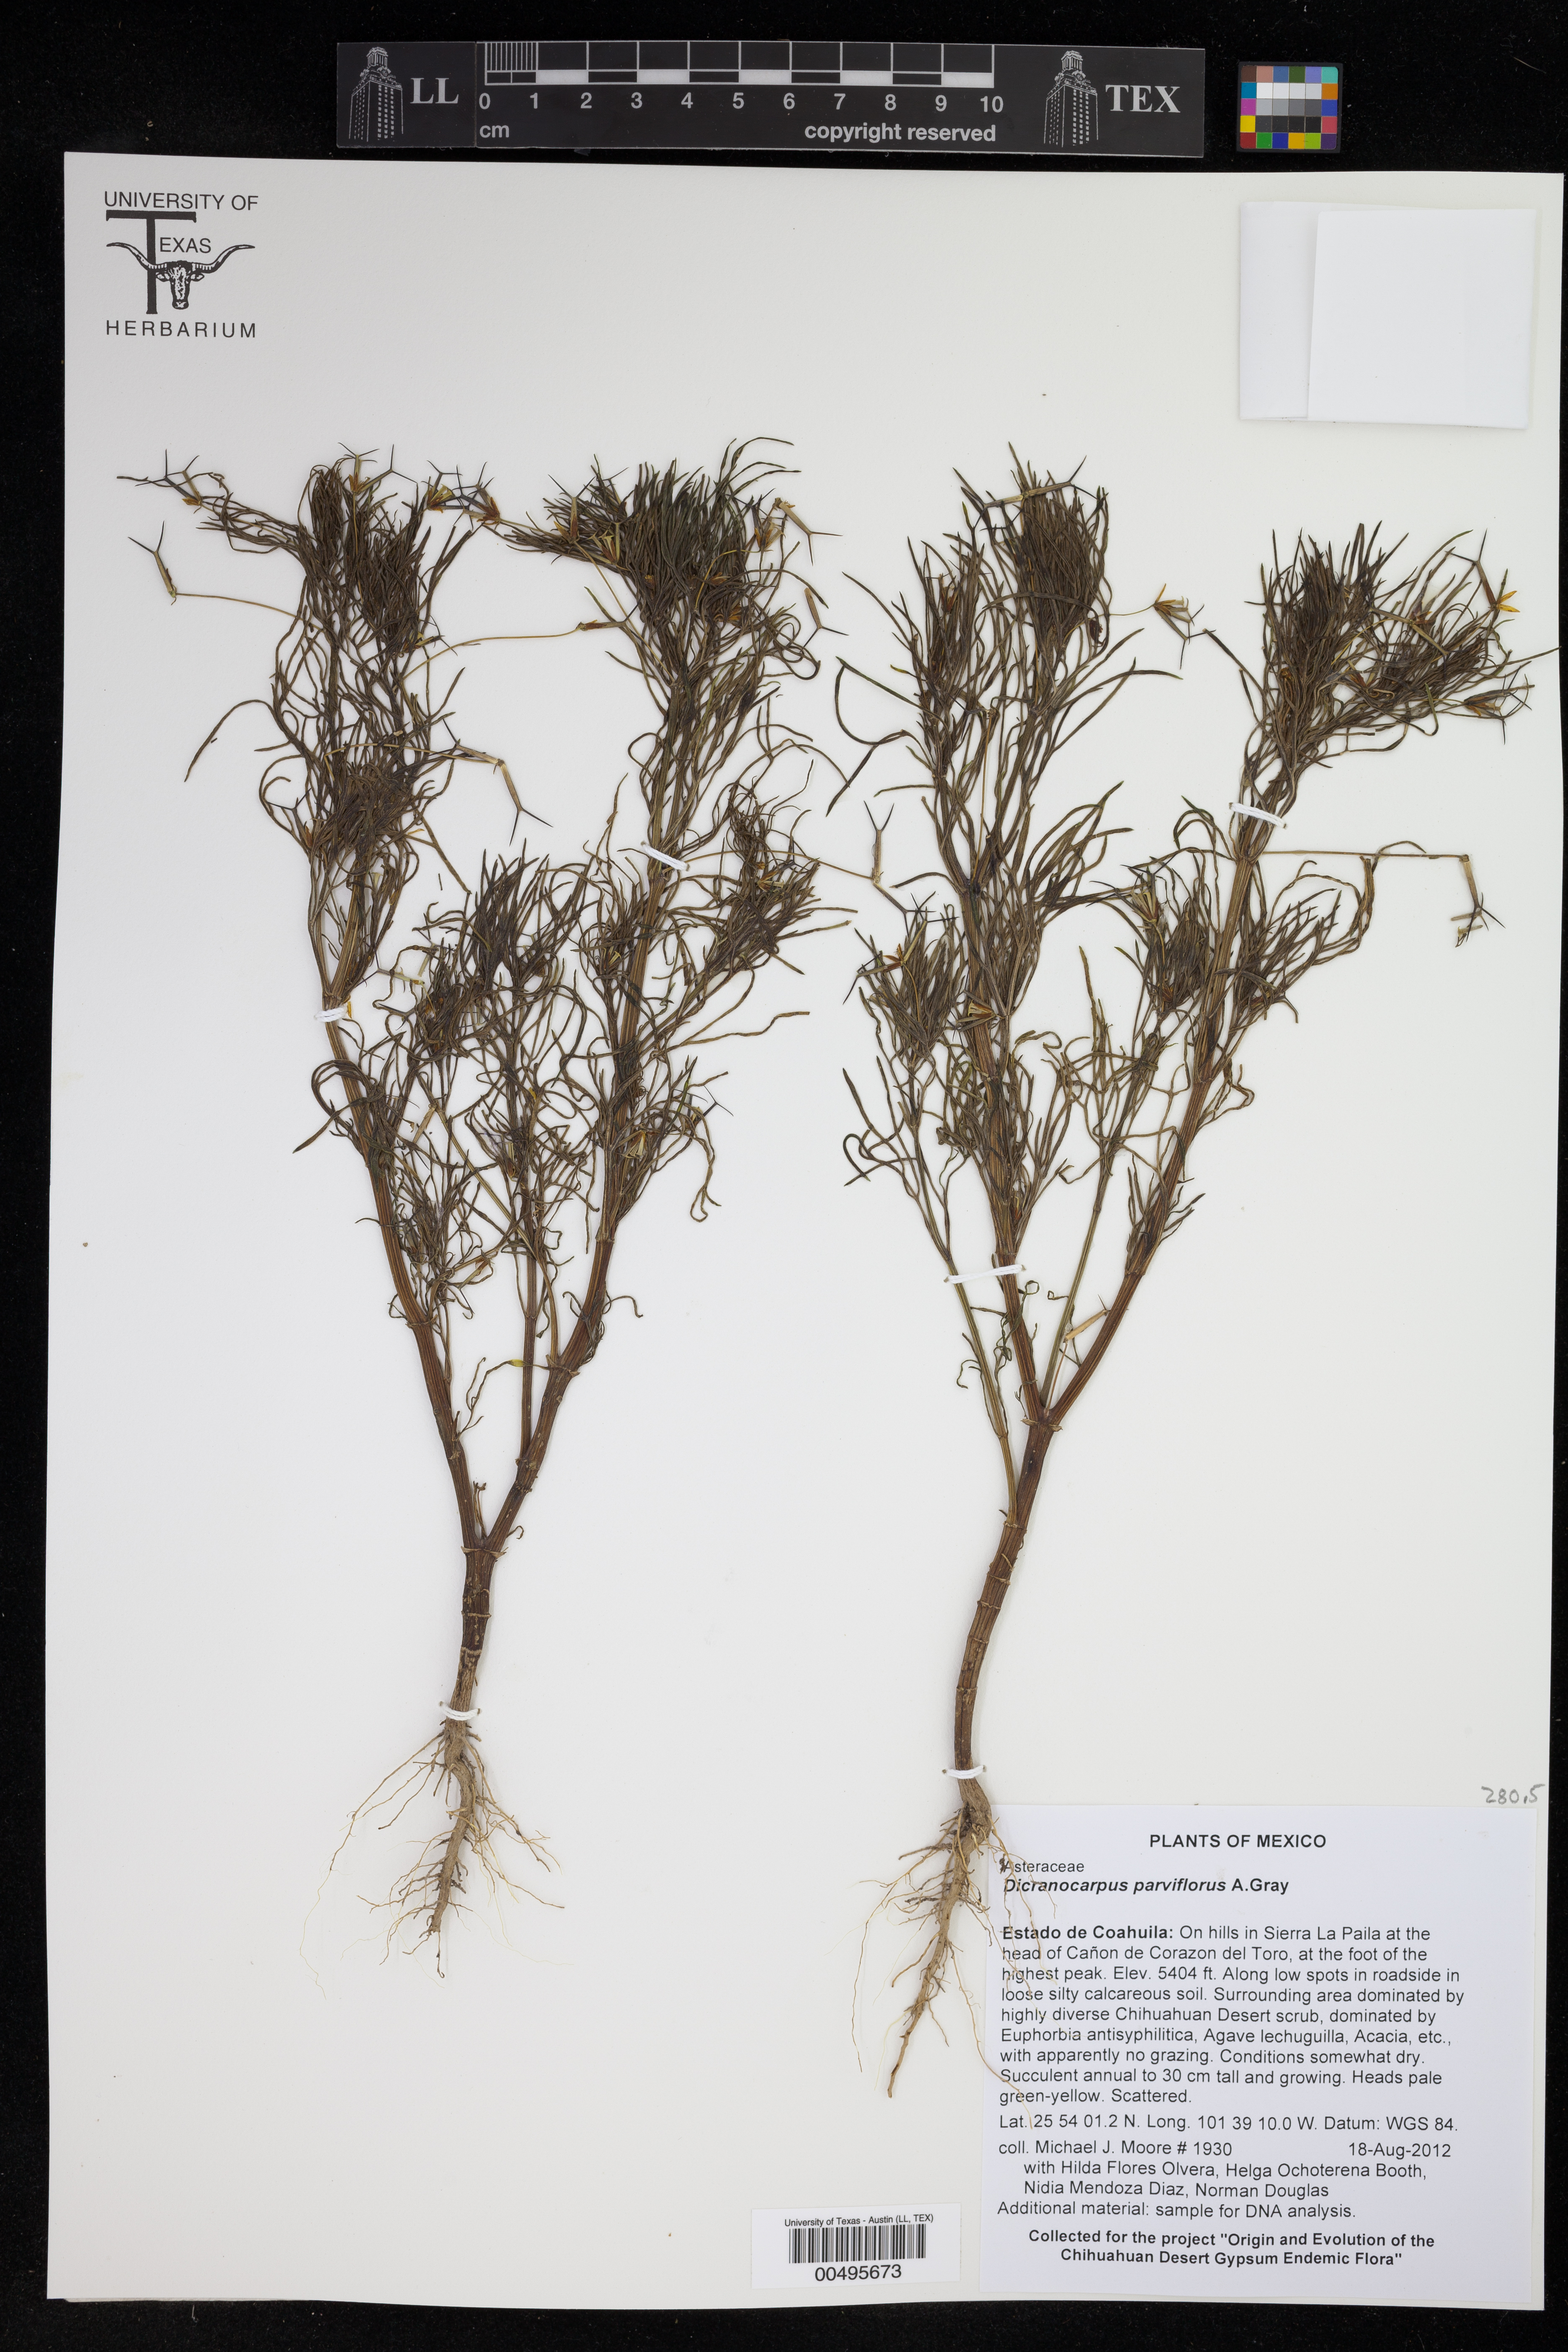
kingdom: Plantae
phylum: Tracheophyta
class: Magnoliopsida
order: Asterales
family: Asteraceae
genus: Dicranocarpus
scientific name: Dicranocarpus parviflorus
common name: Pitchfork
